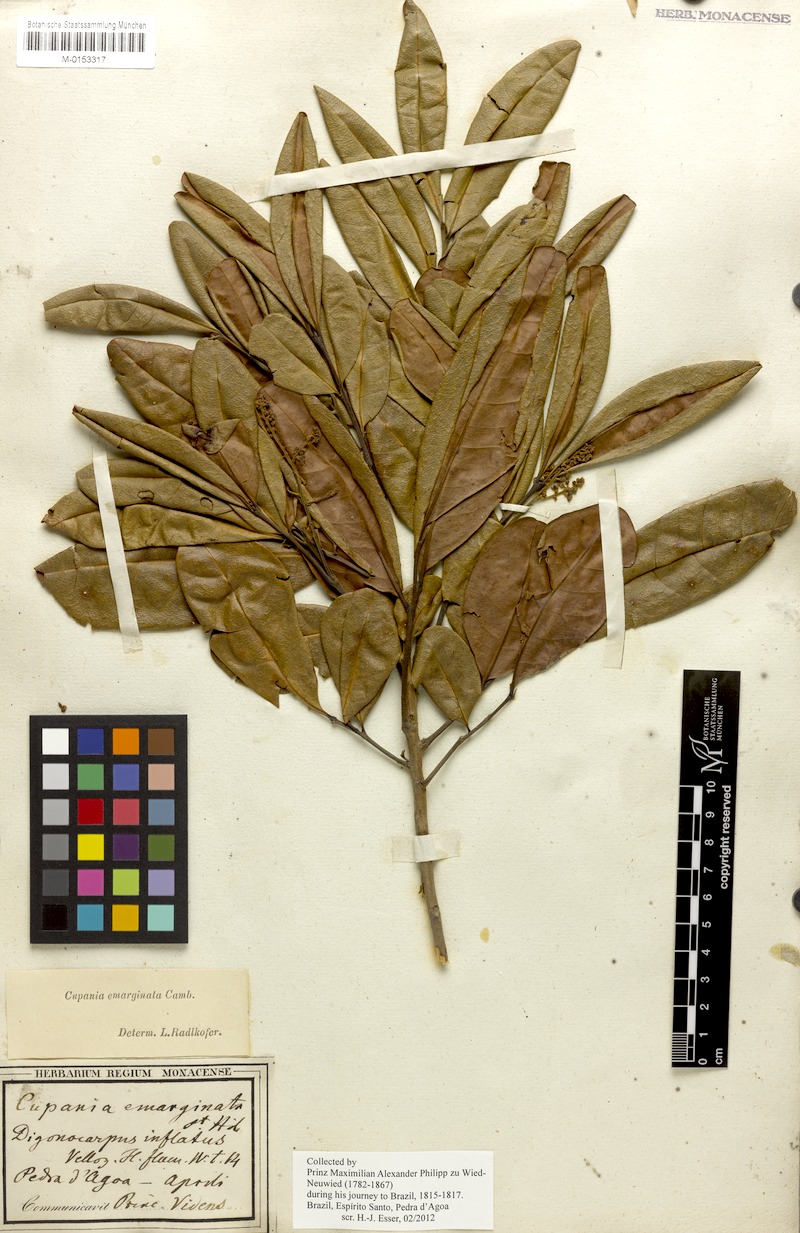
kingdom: Plantae
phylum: Tracheophyta
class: Magnoliopsida
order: Sapindales
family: Sapindaceae
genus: Cupania
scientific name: Cupania emarginata
